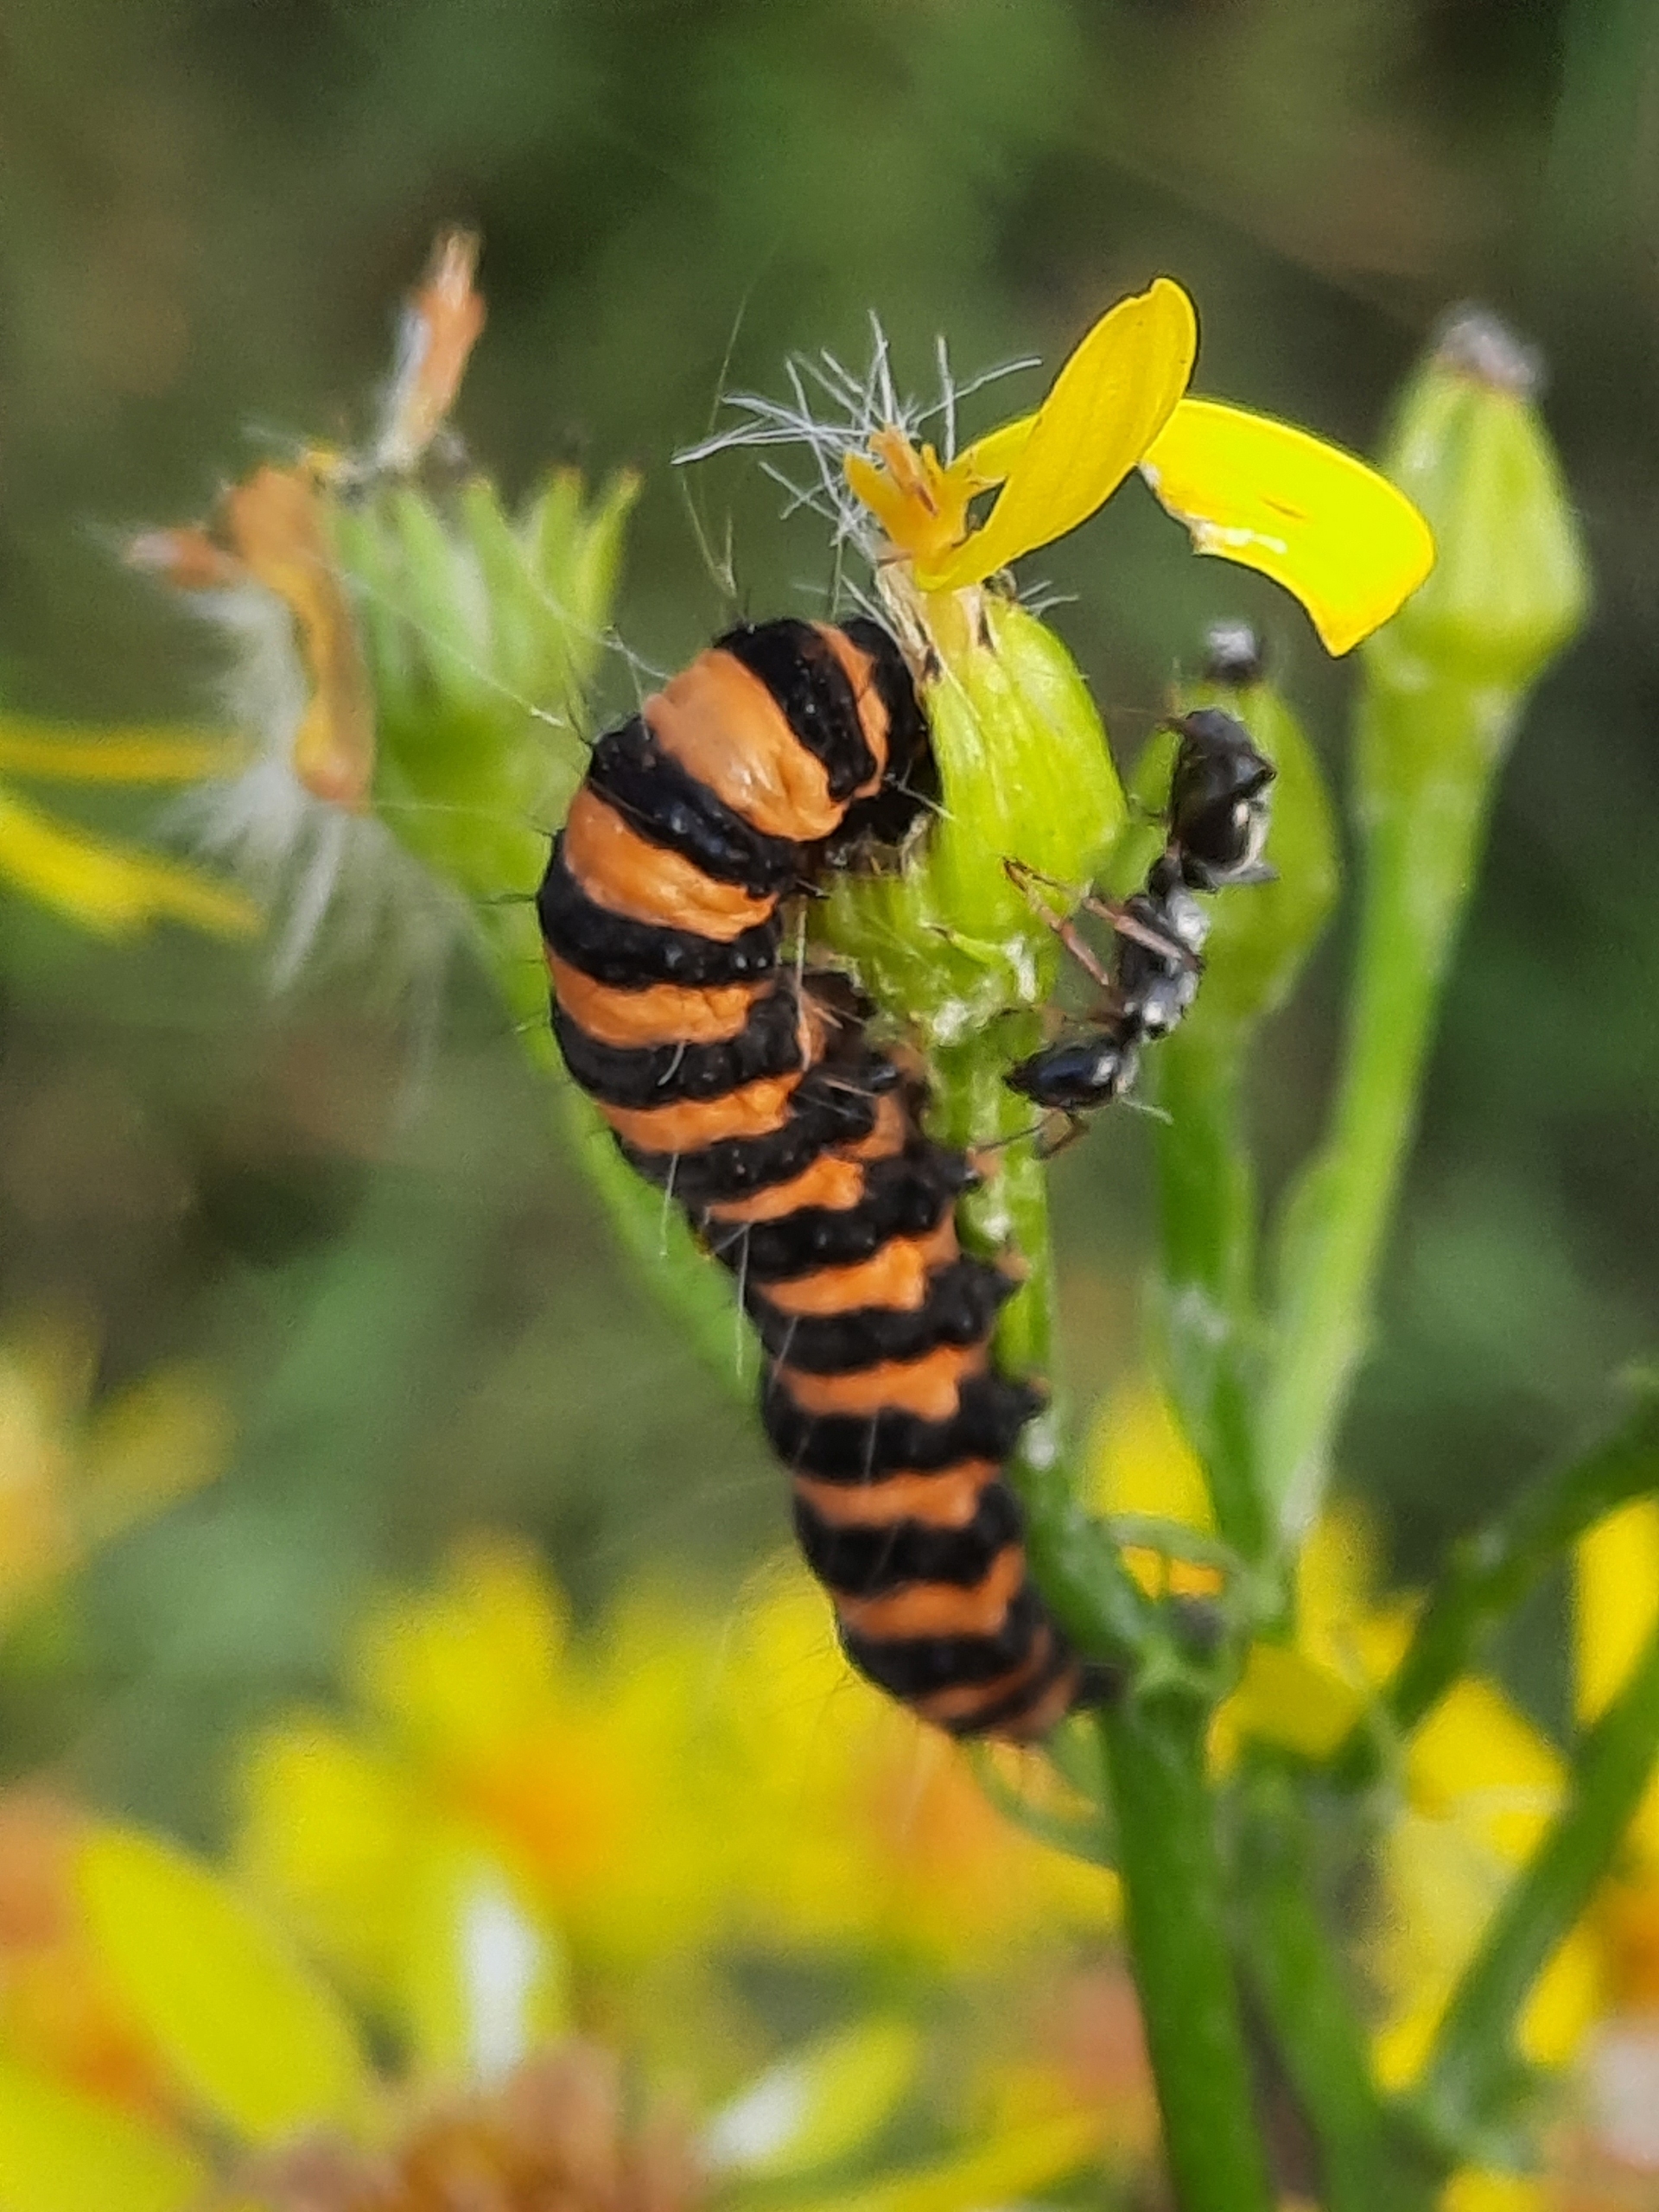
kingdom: Animalia
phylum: Arthropoda
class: Insecta
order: Lepidoptera
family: Erebidae
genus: Tyria
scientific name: Tyria jacobaeae
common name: Blodplet
